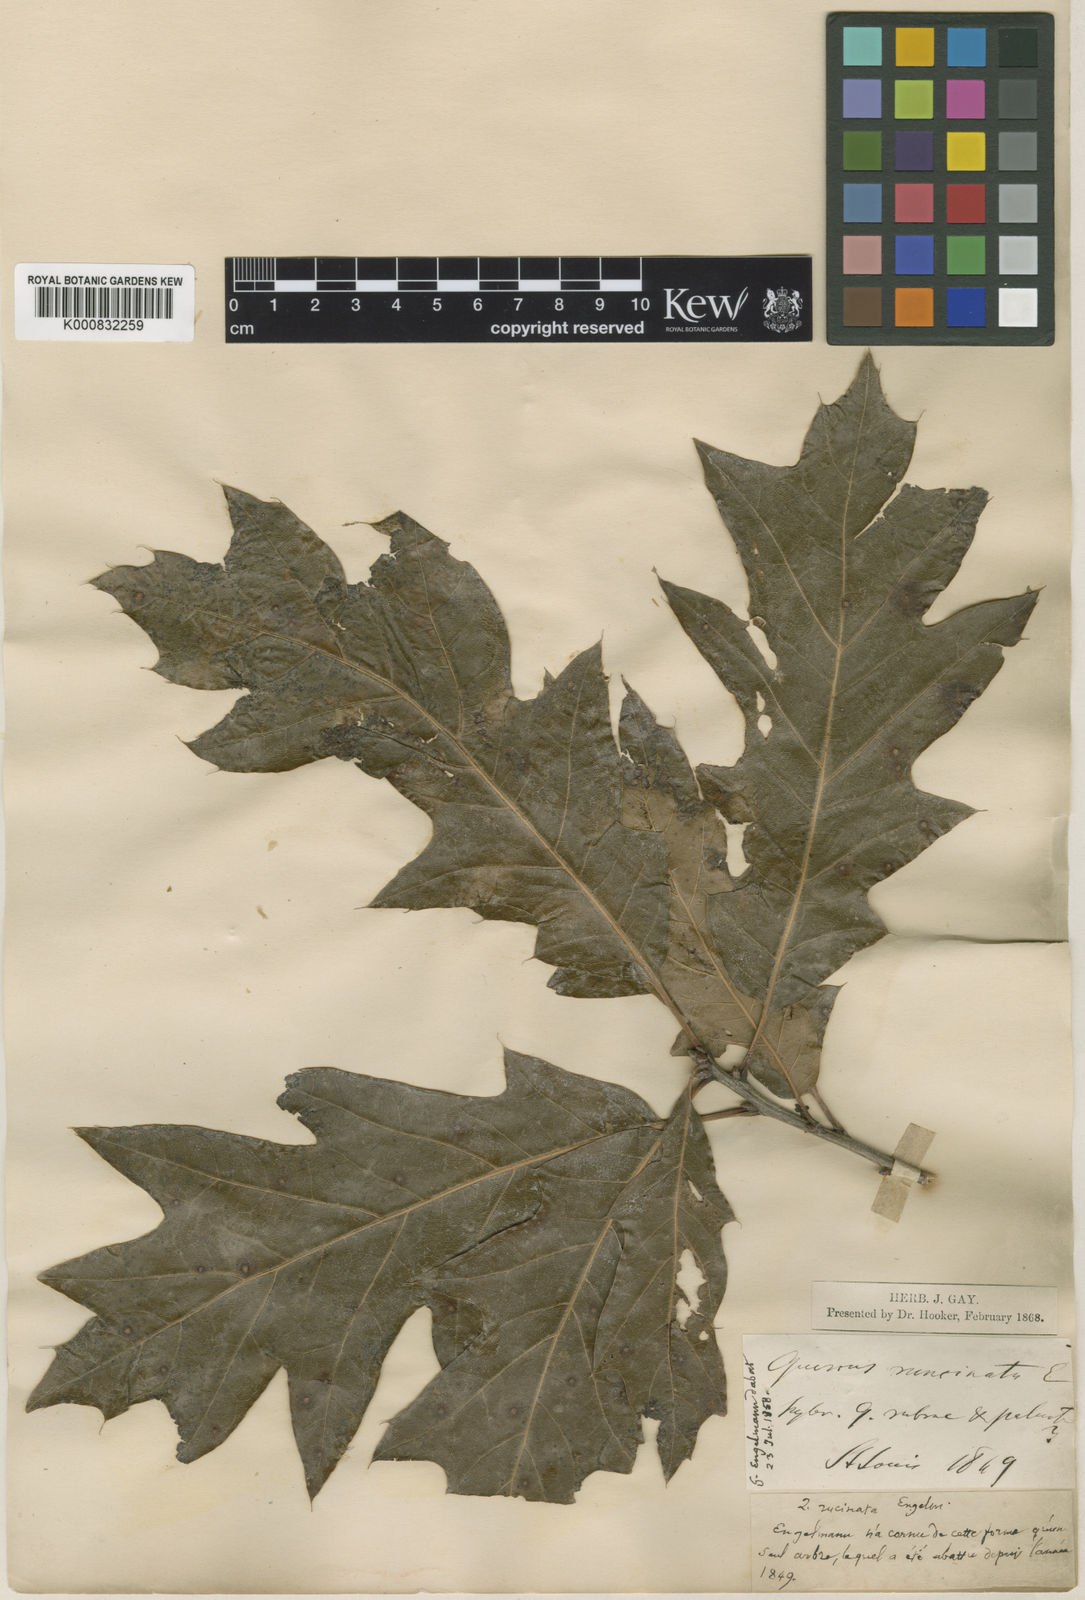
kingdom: Plantae
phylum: Tracheophyta
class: Magnoliopsida
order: Fagales
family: Fagaceae
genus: Quercus
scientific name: Quercus imbricaria
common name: Shingle oak
